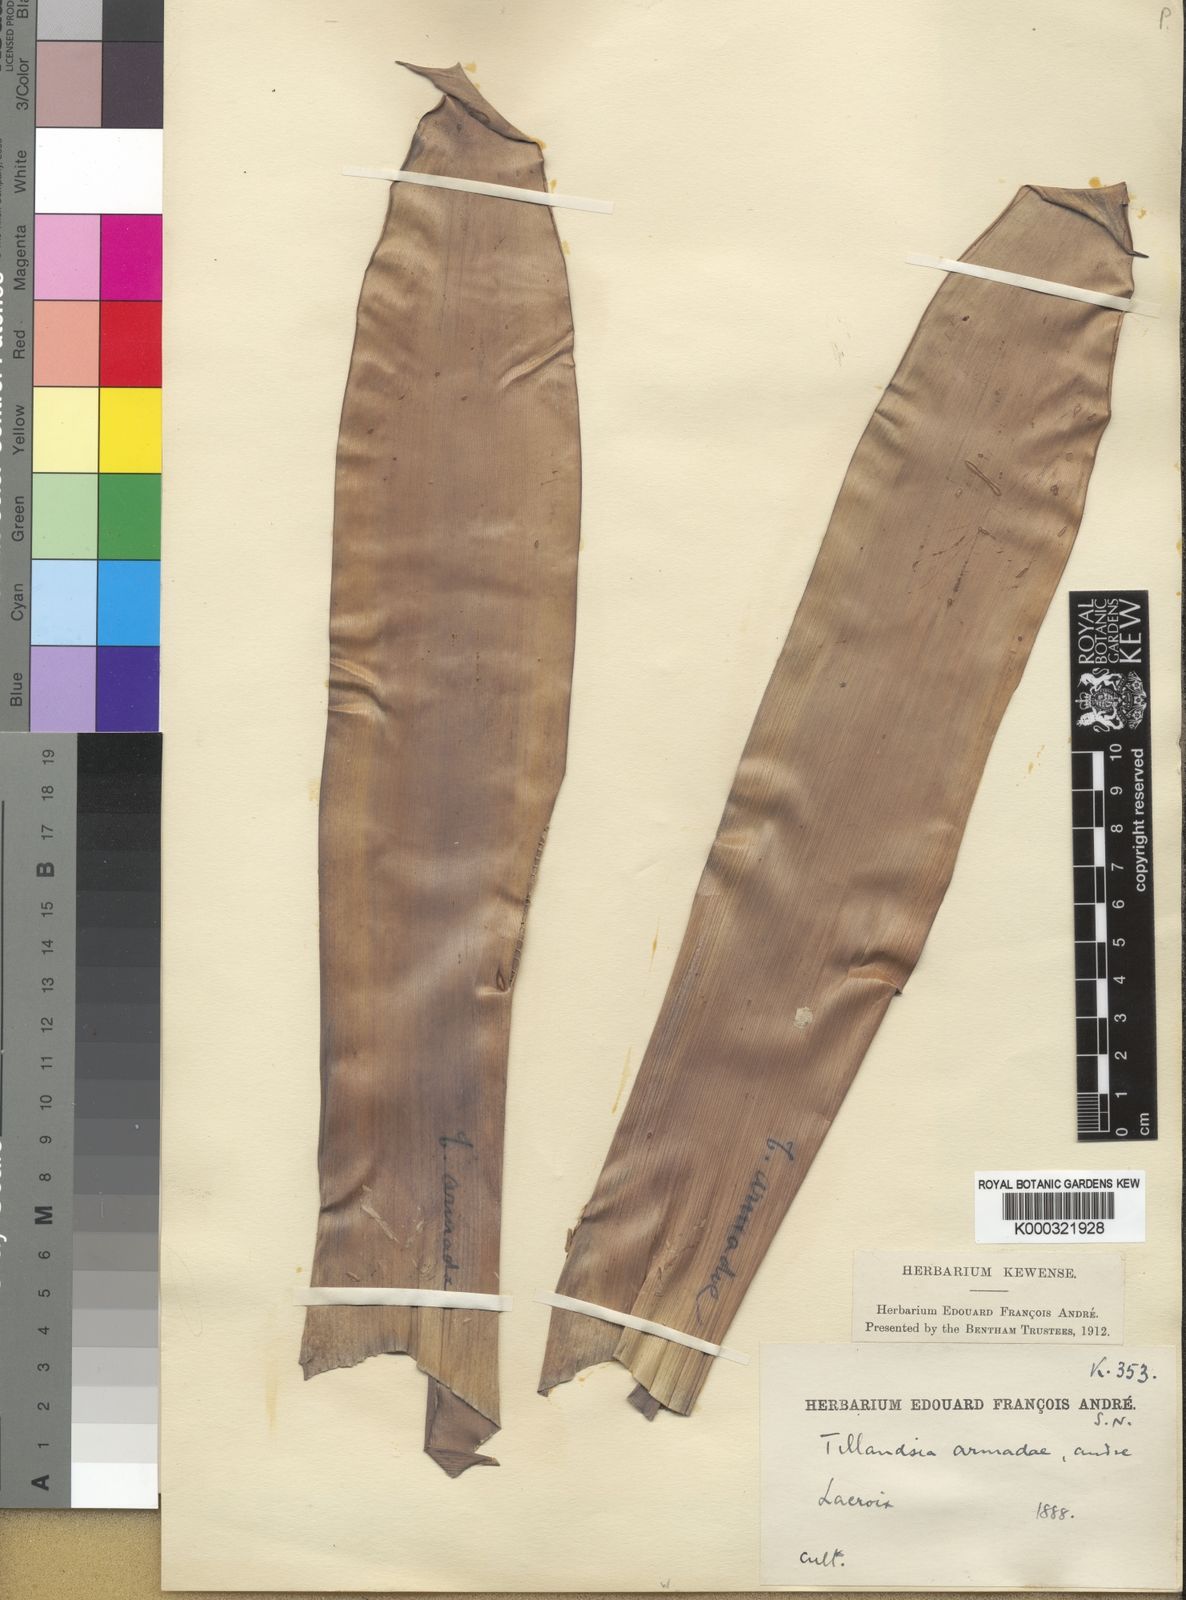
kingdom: Plantae
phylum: Tracheophyta
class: Liliopsida
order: Poales
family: Bromeliaceae
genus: Tillandsia
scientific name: Tillandsia
